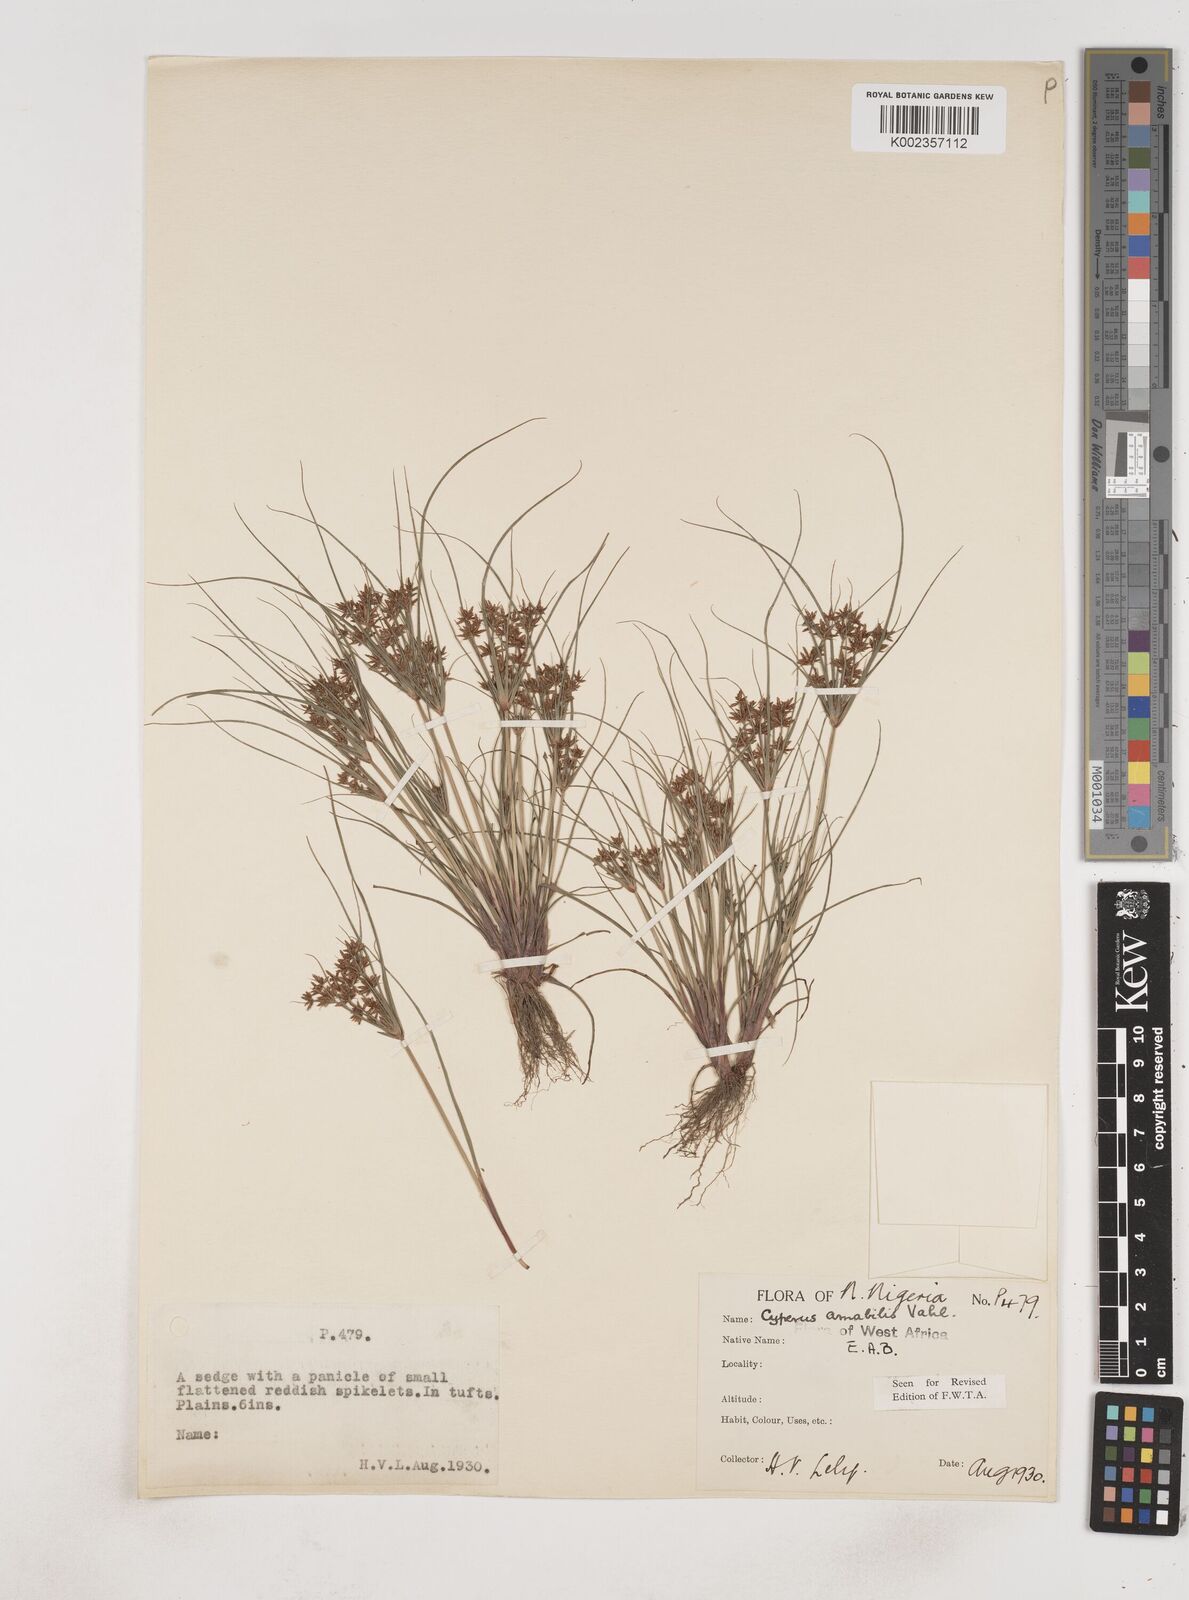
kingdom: Plantae
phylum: Tracheophyta
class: Liliopsida
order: Poales
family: Cyperaceae
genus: Cyperus
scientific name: Cyperus amabilis
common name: Foothill flat sedge
